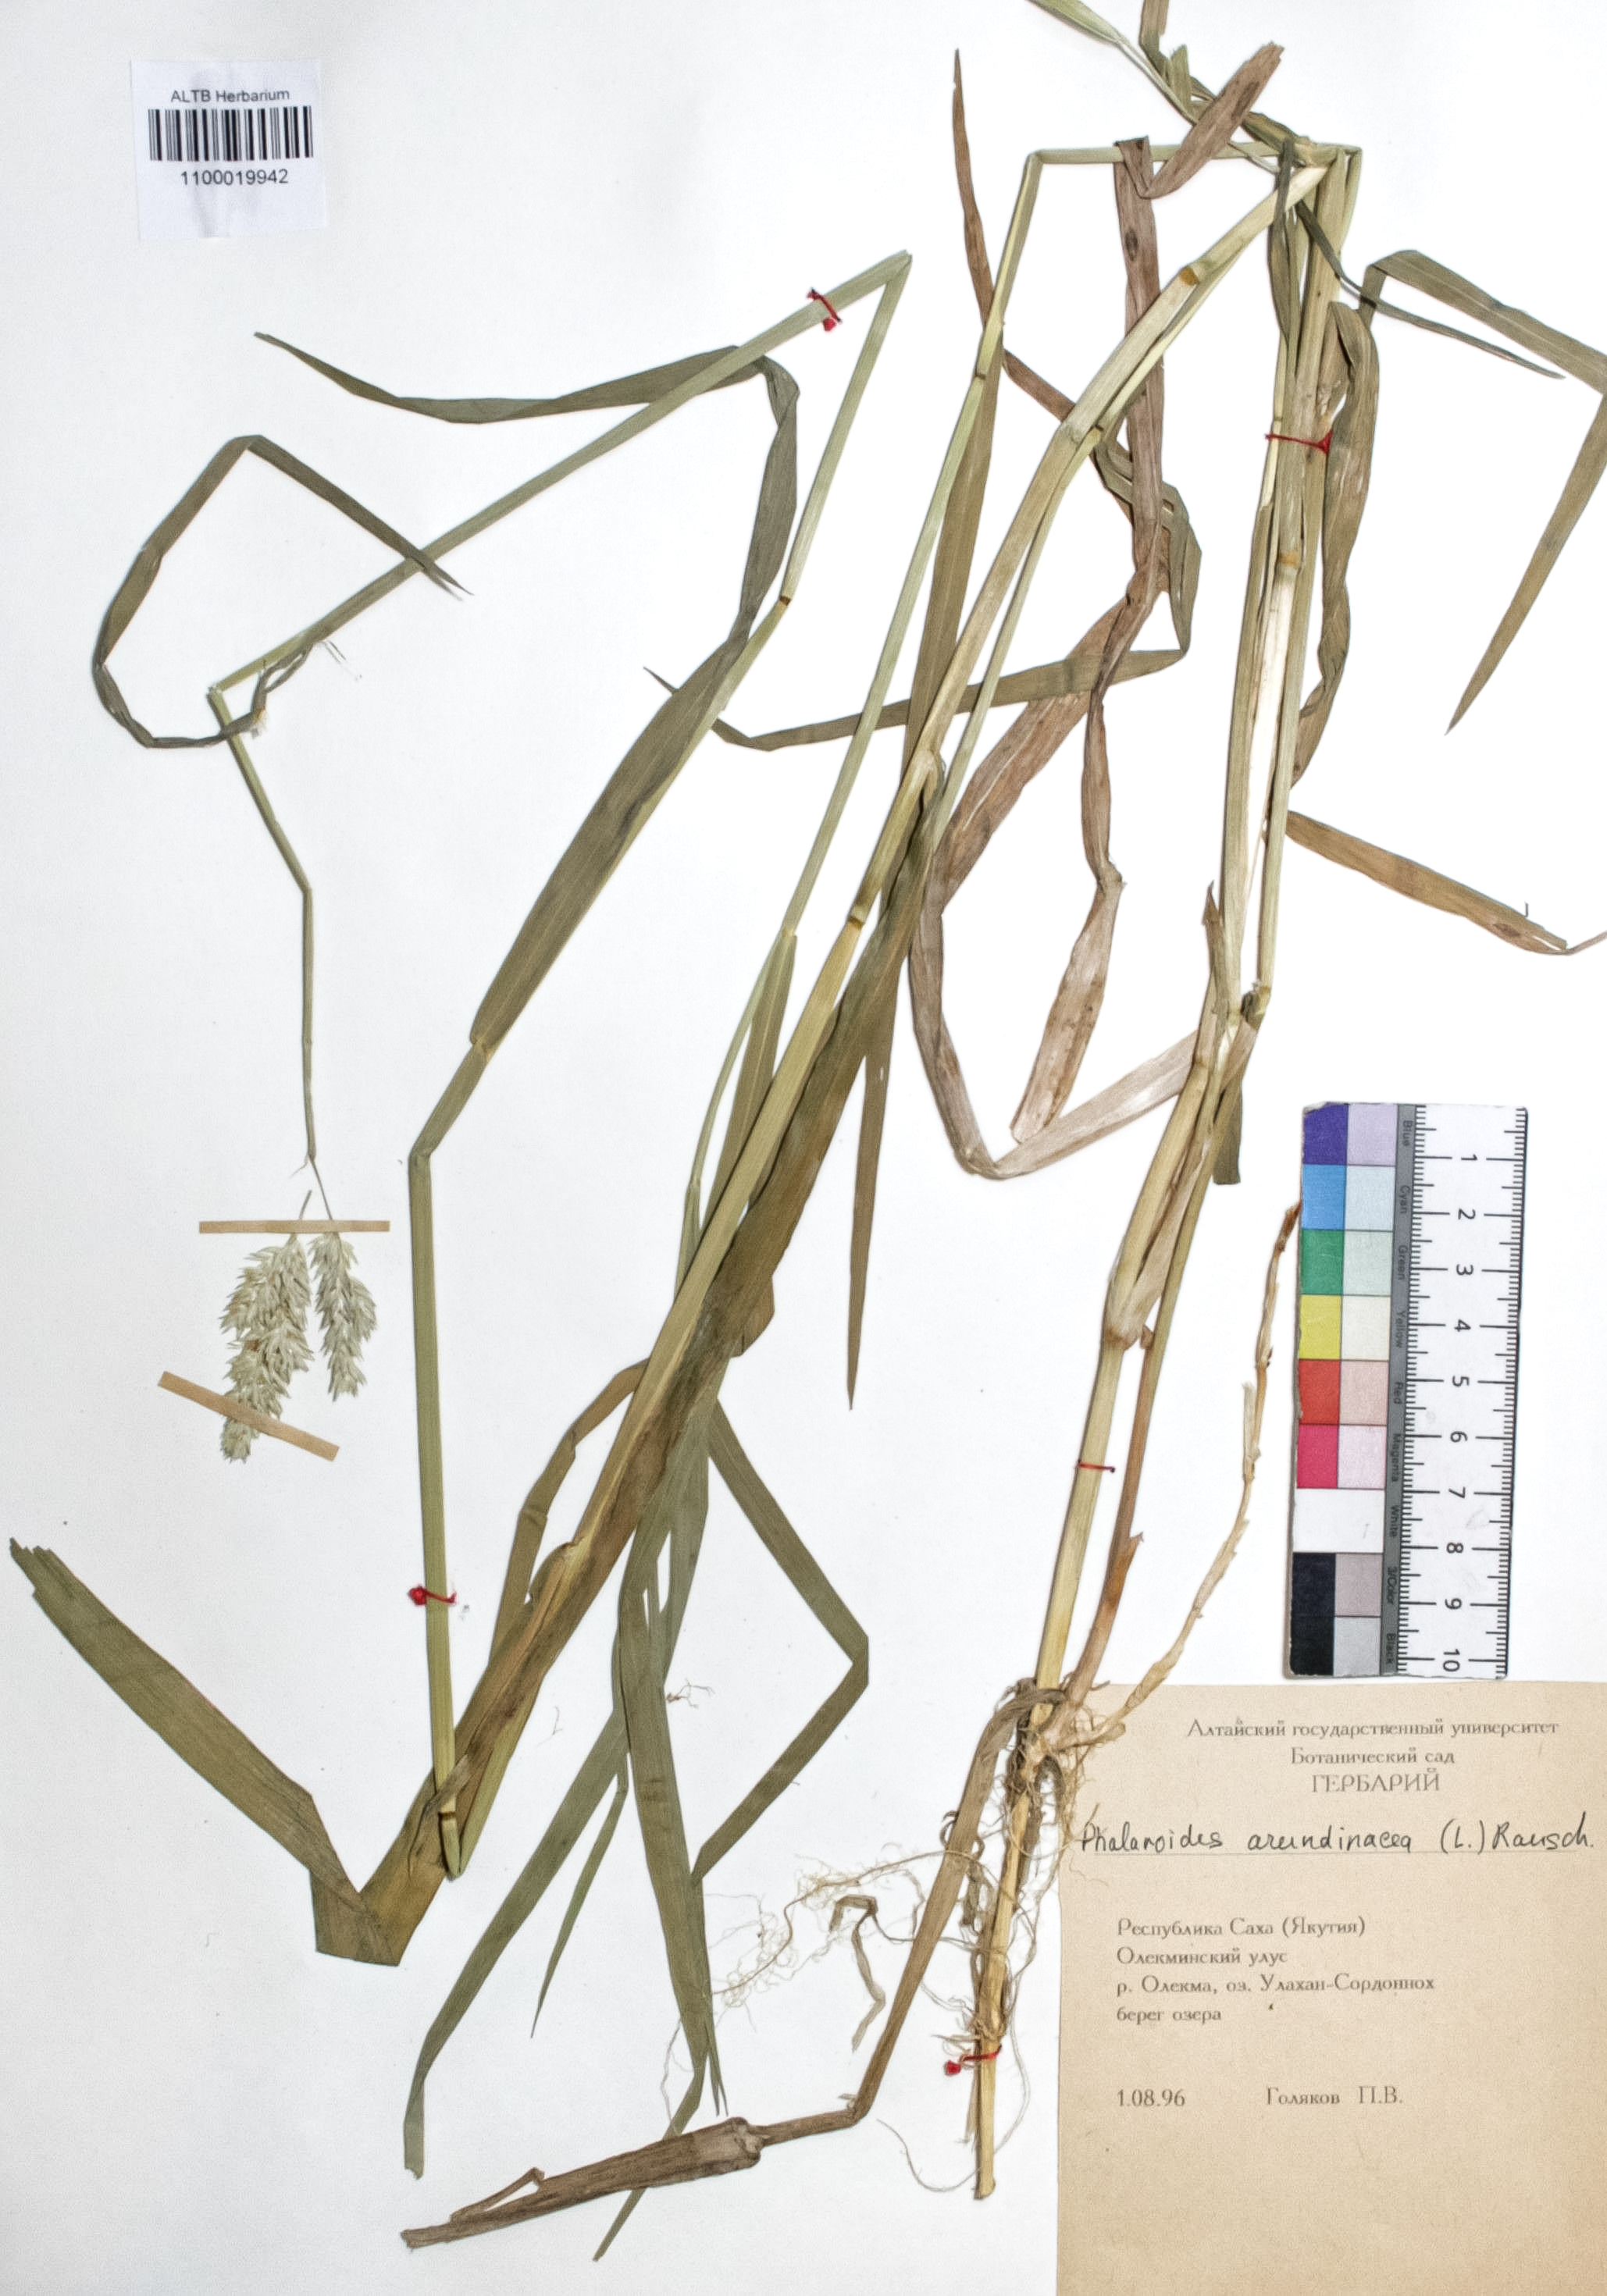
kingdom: Plantae
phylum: Tracheophyta
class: Liliopsida
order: Poales
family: Poaceae
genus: Phalaris
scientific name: Phalaris arundinacea
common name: Reed canary-grass
